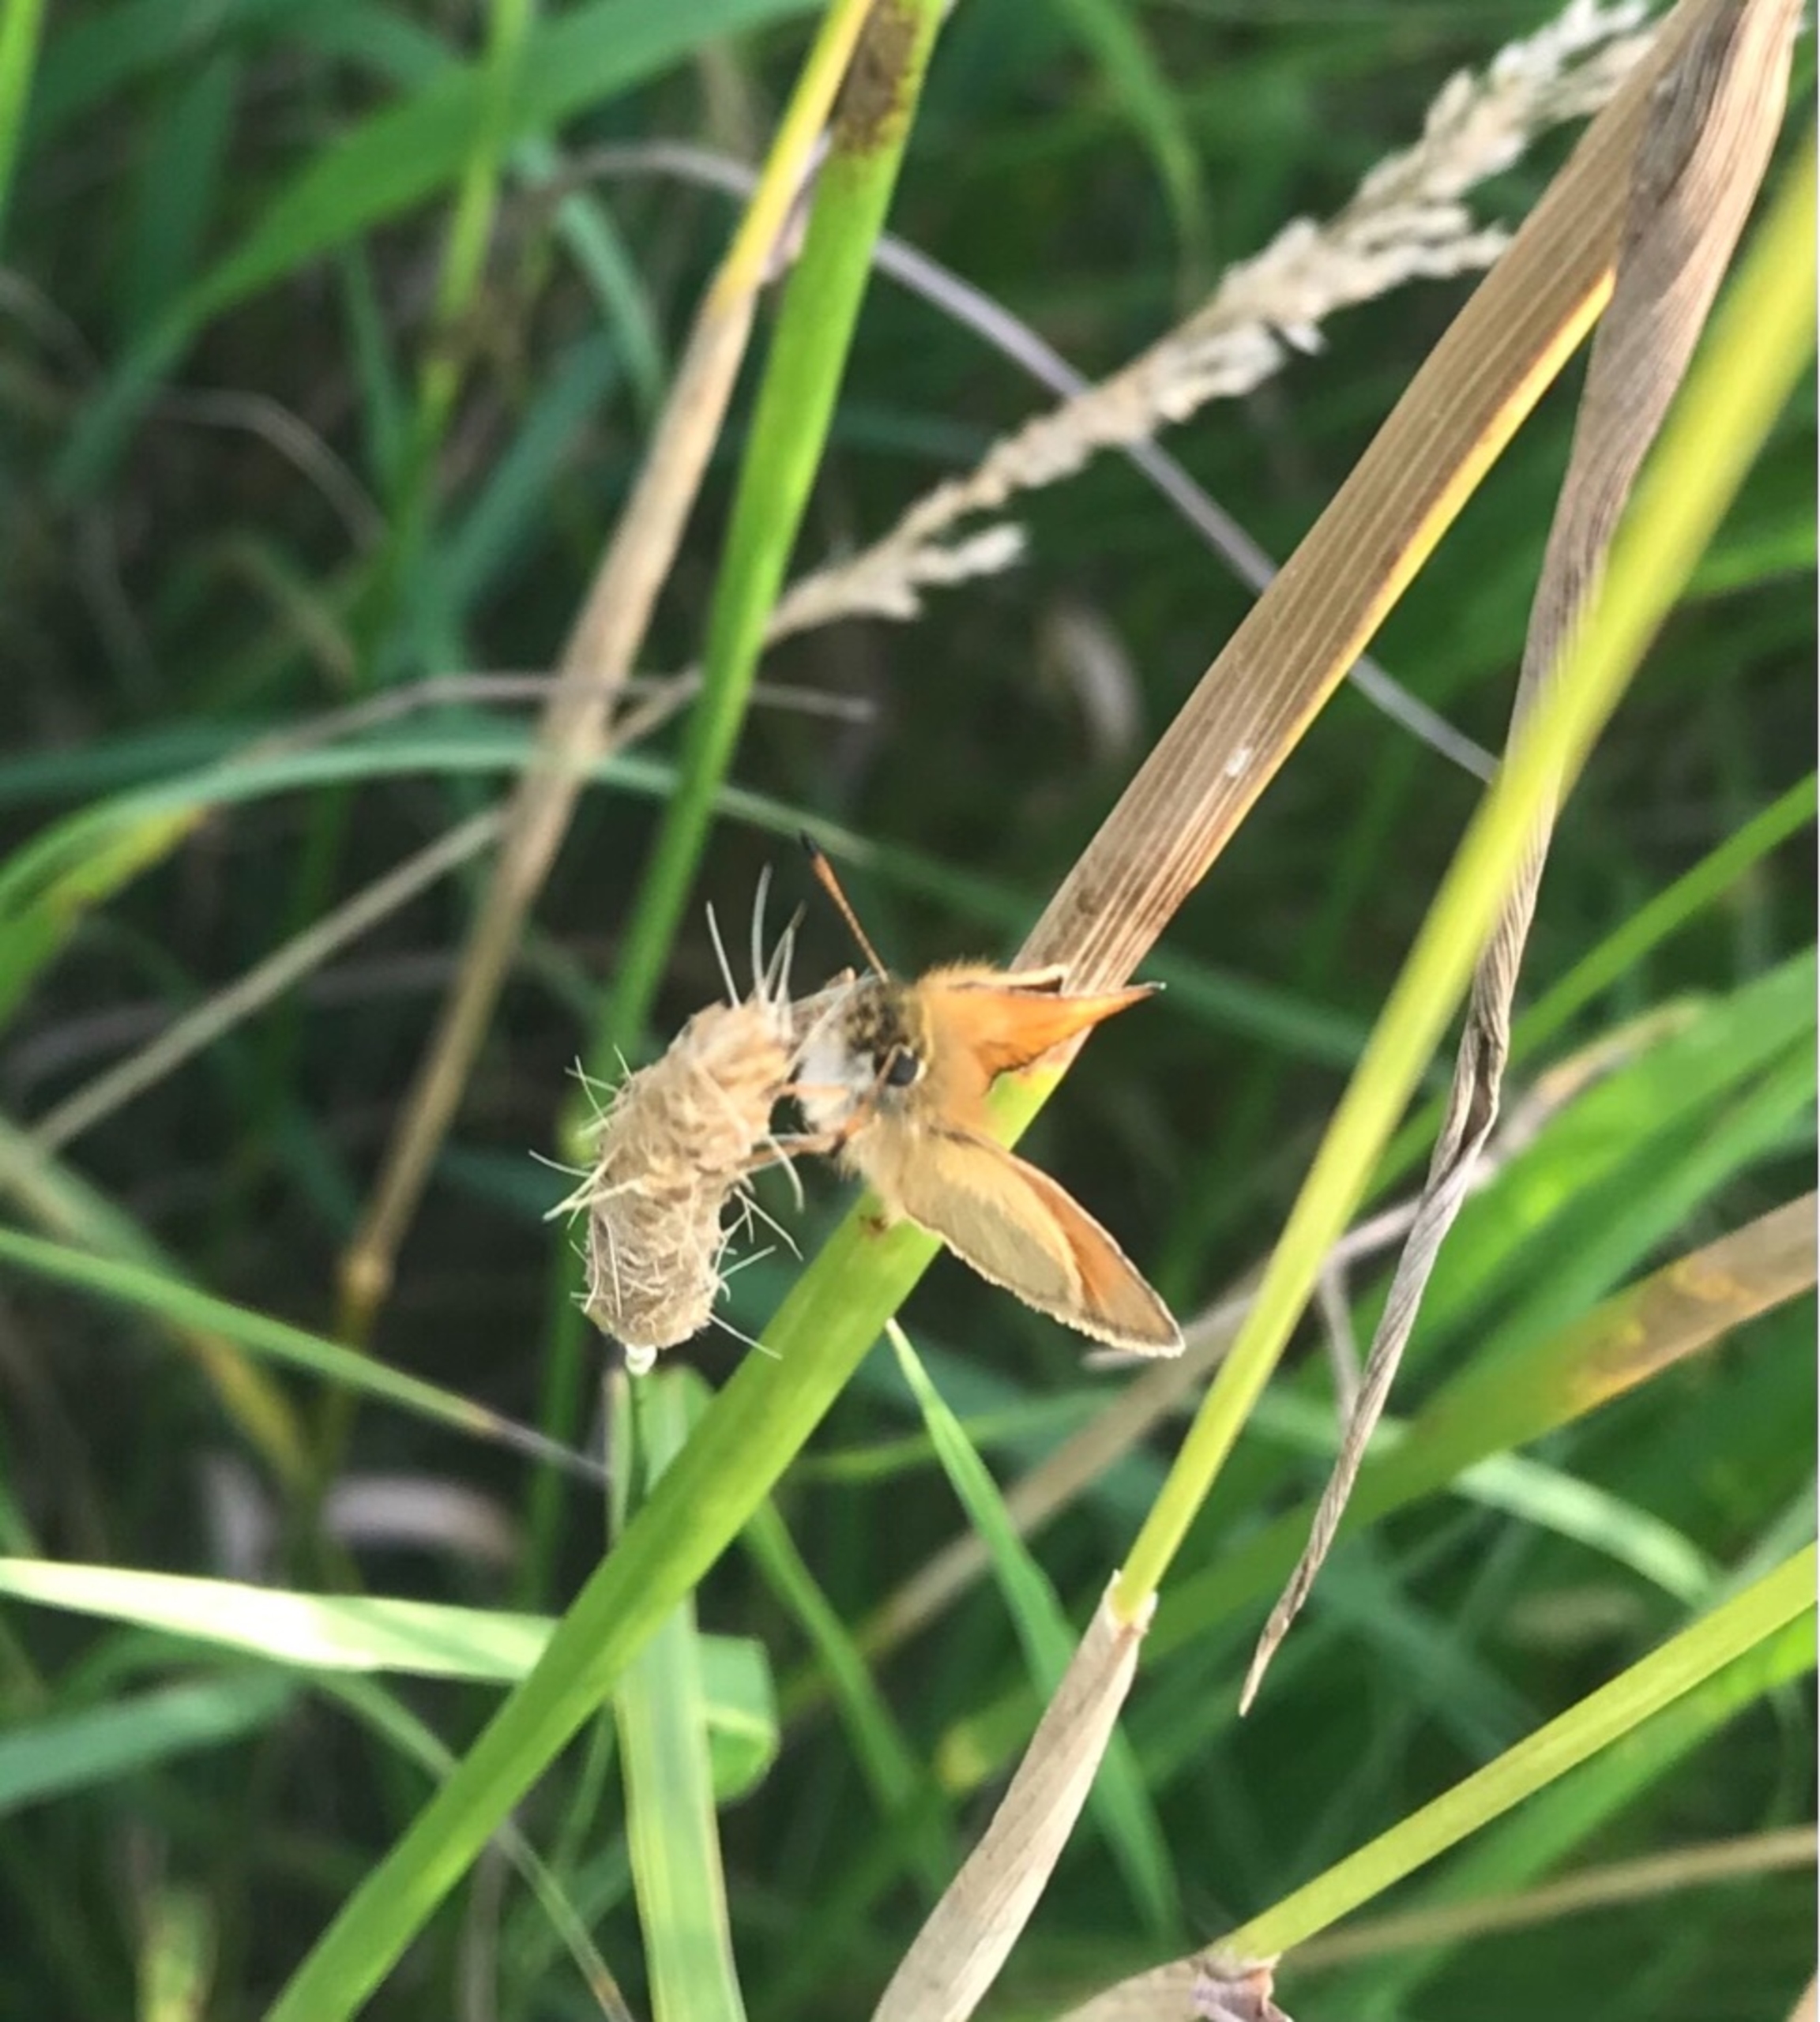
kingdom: Animalia
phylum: Arthropoda
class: Insecta
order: Lepidoptera
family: Hesperiidae
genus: Thymelicus
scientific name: Thymelicus lineola
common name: Stregbredpande
